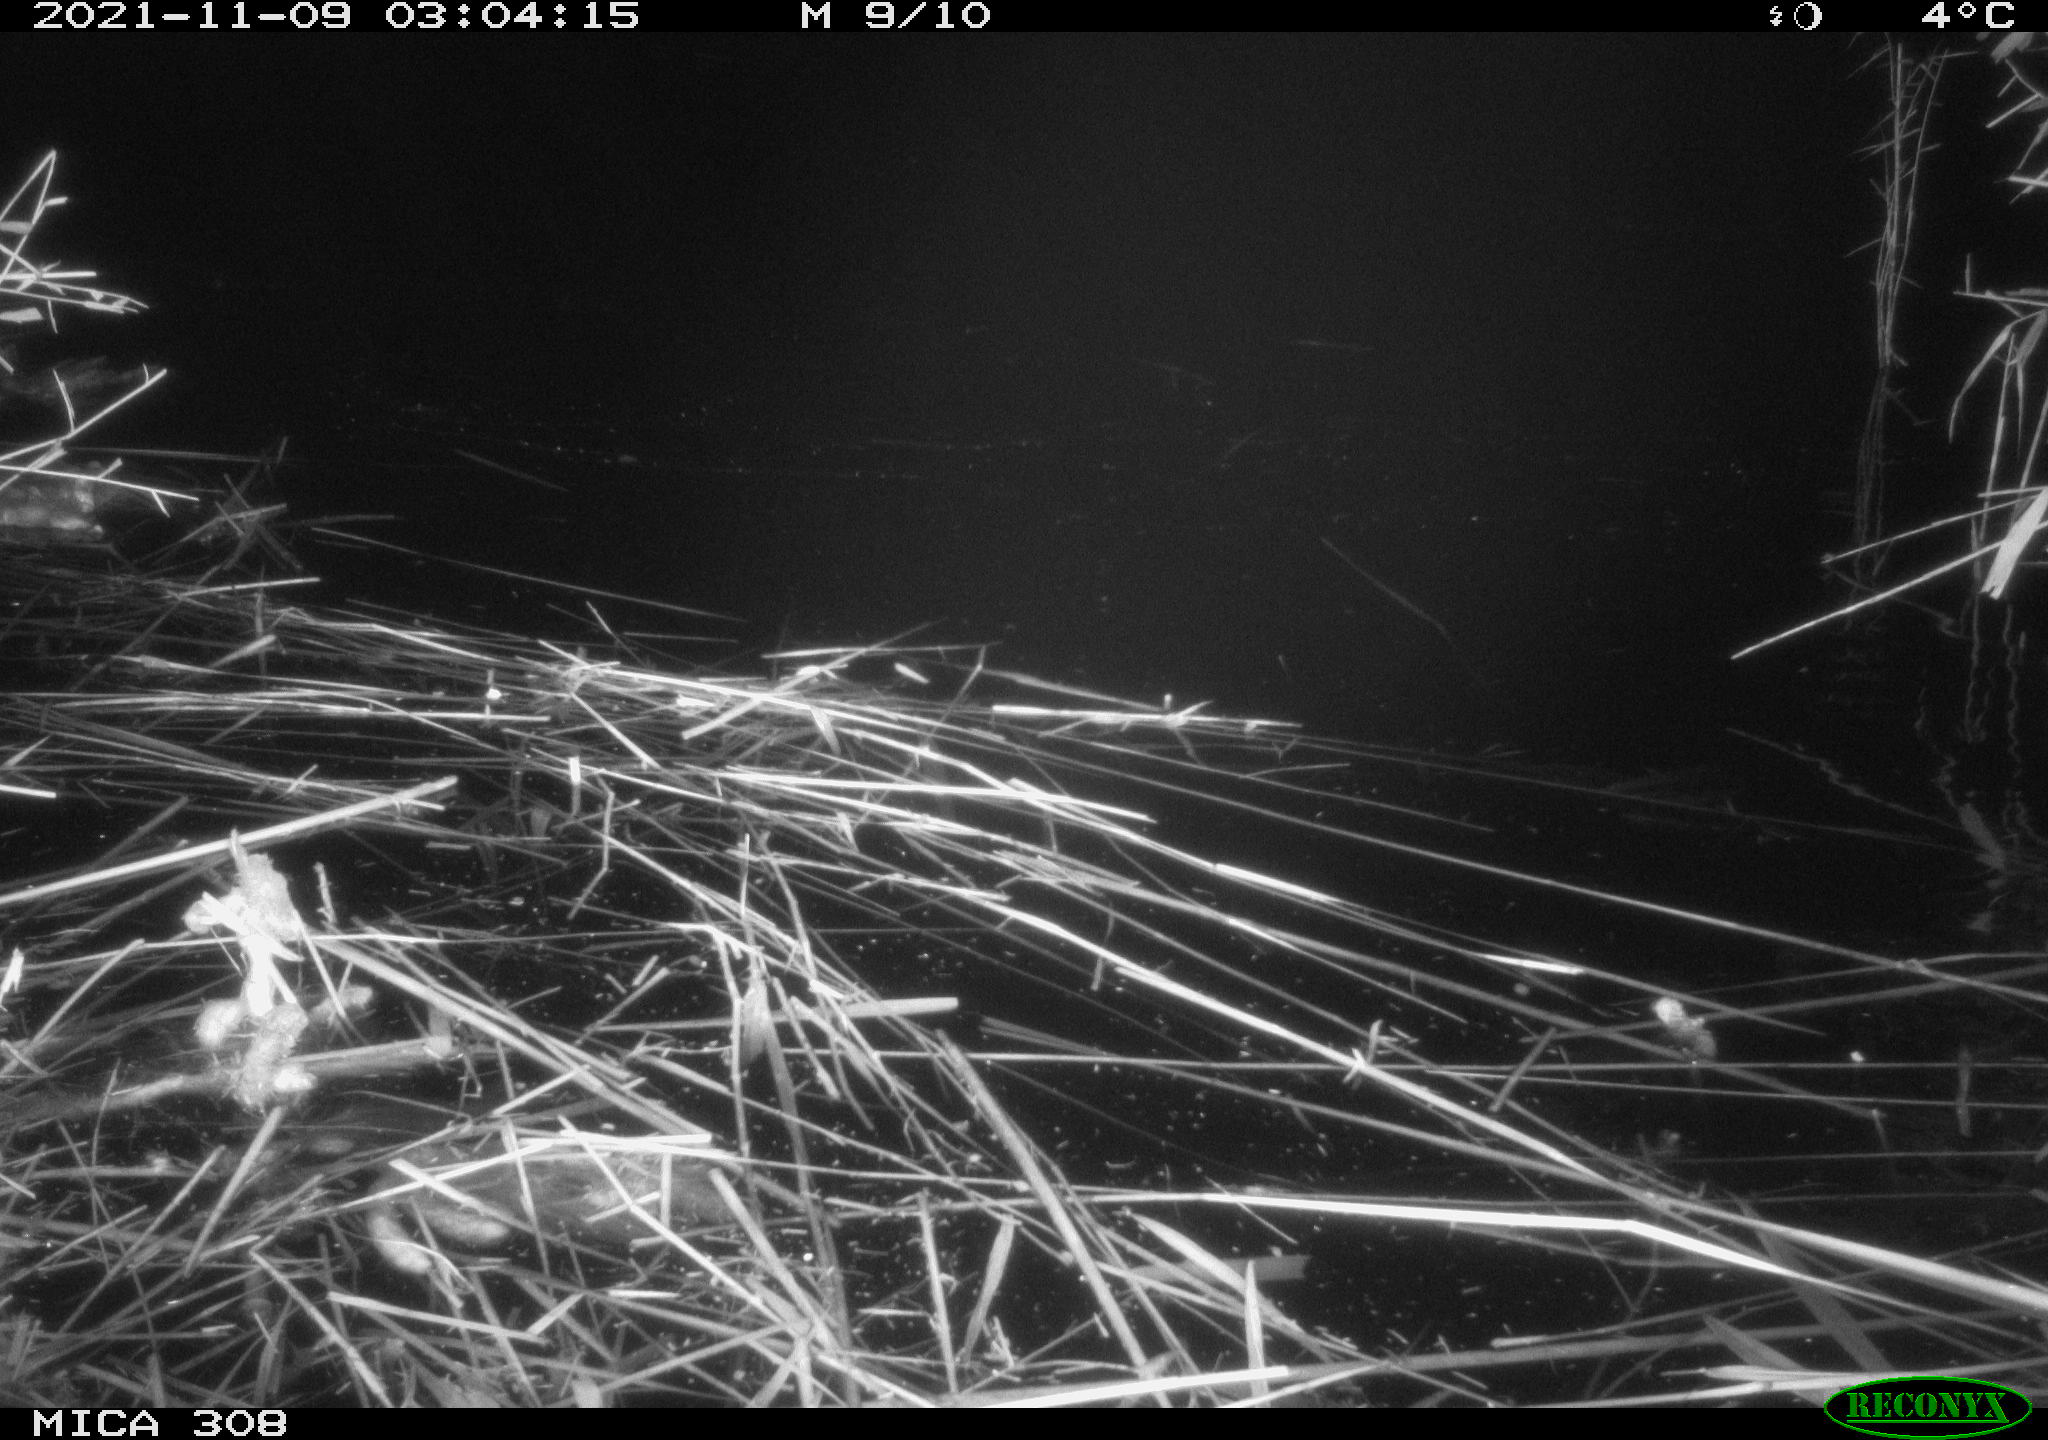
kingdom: Animalia
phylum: Chordata
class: Mammalia
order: Rodentia
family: Cricetidae
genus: Ondatra
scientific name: Ondatra zibethicus
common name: Muskrat
